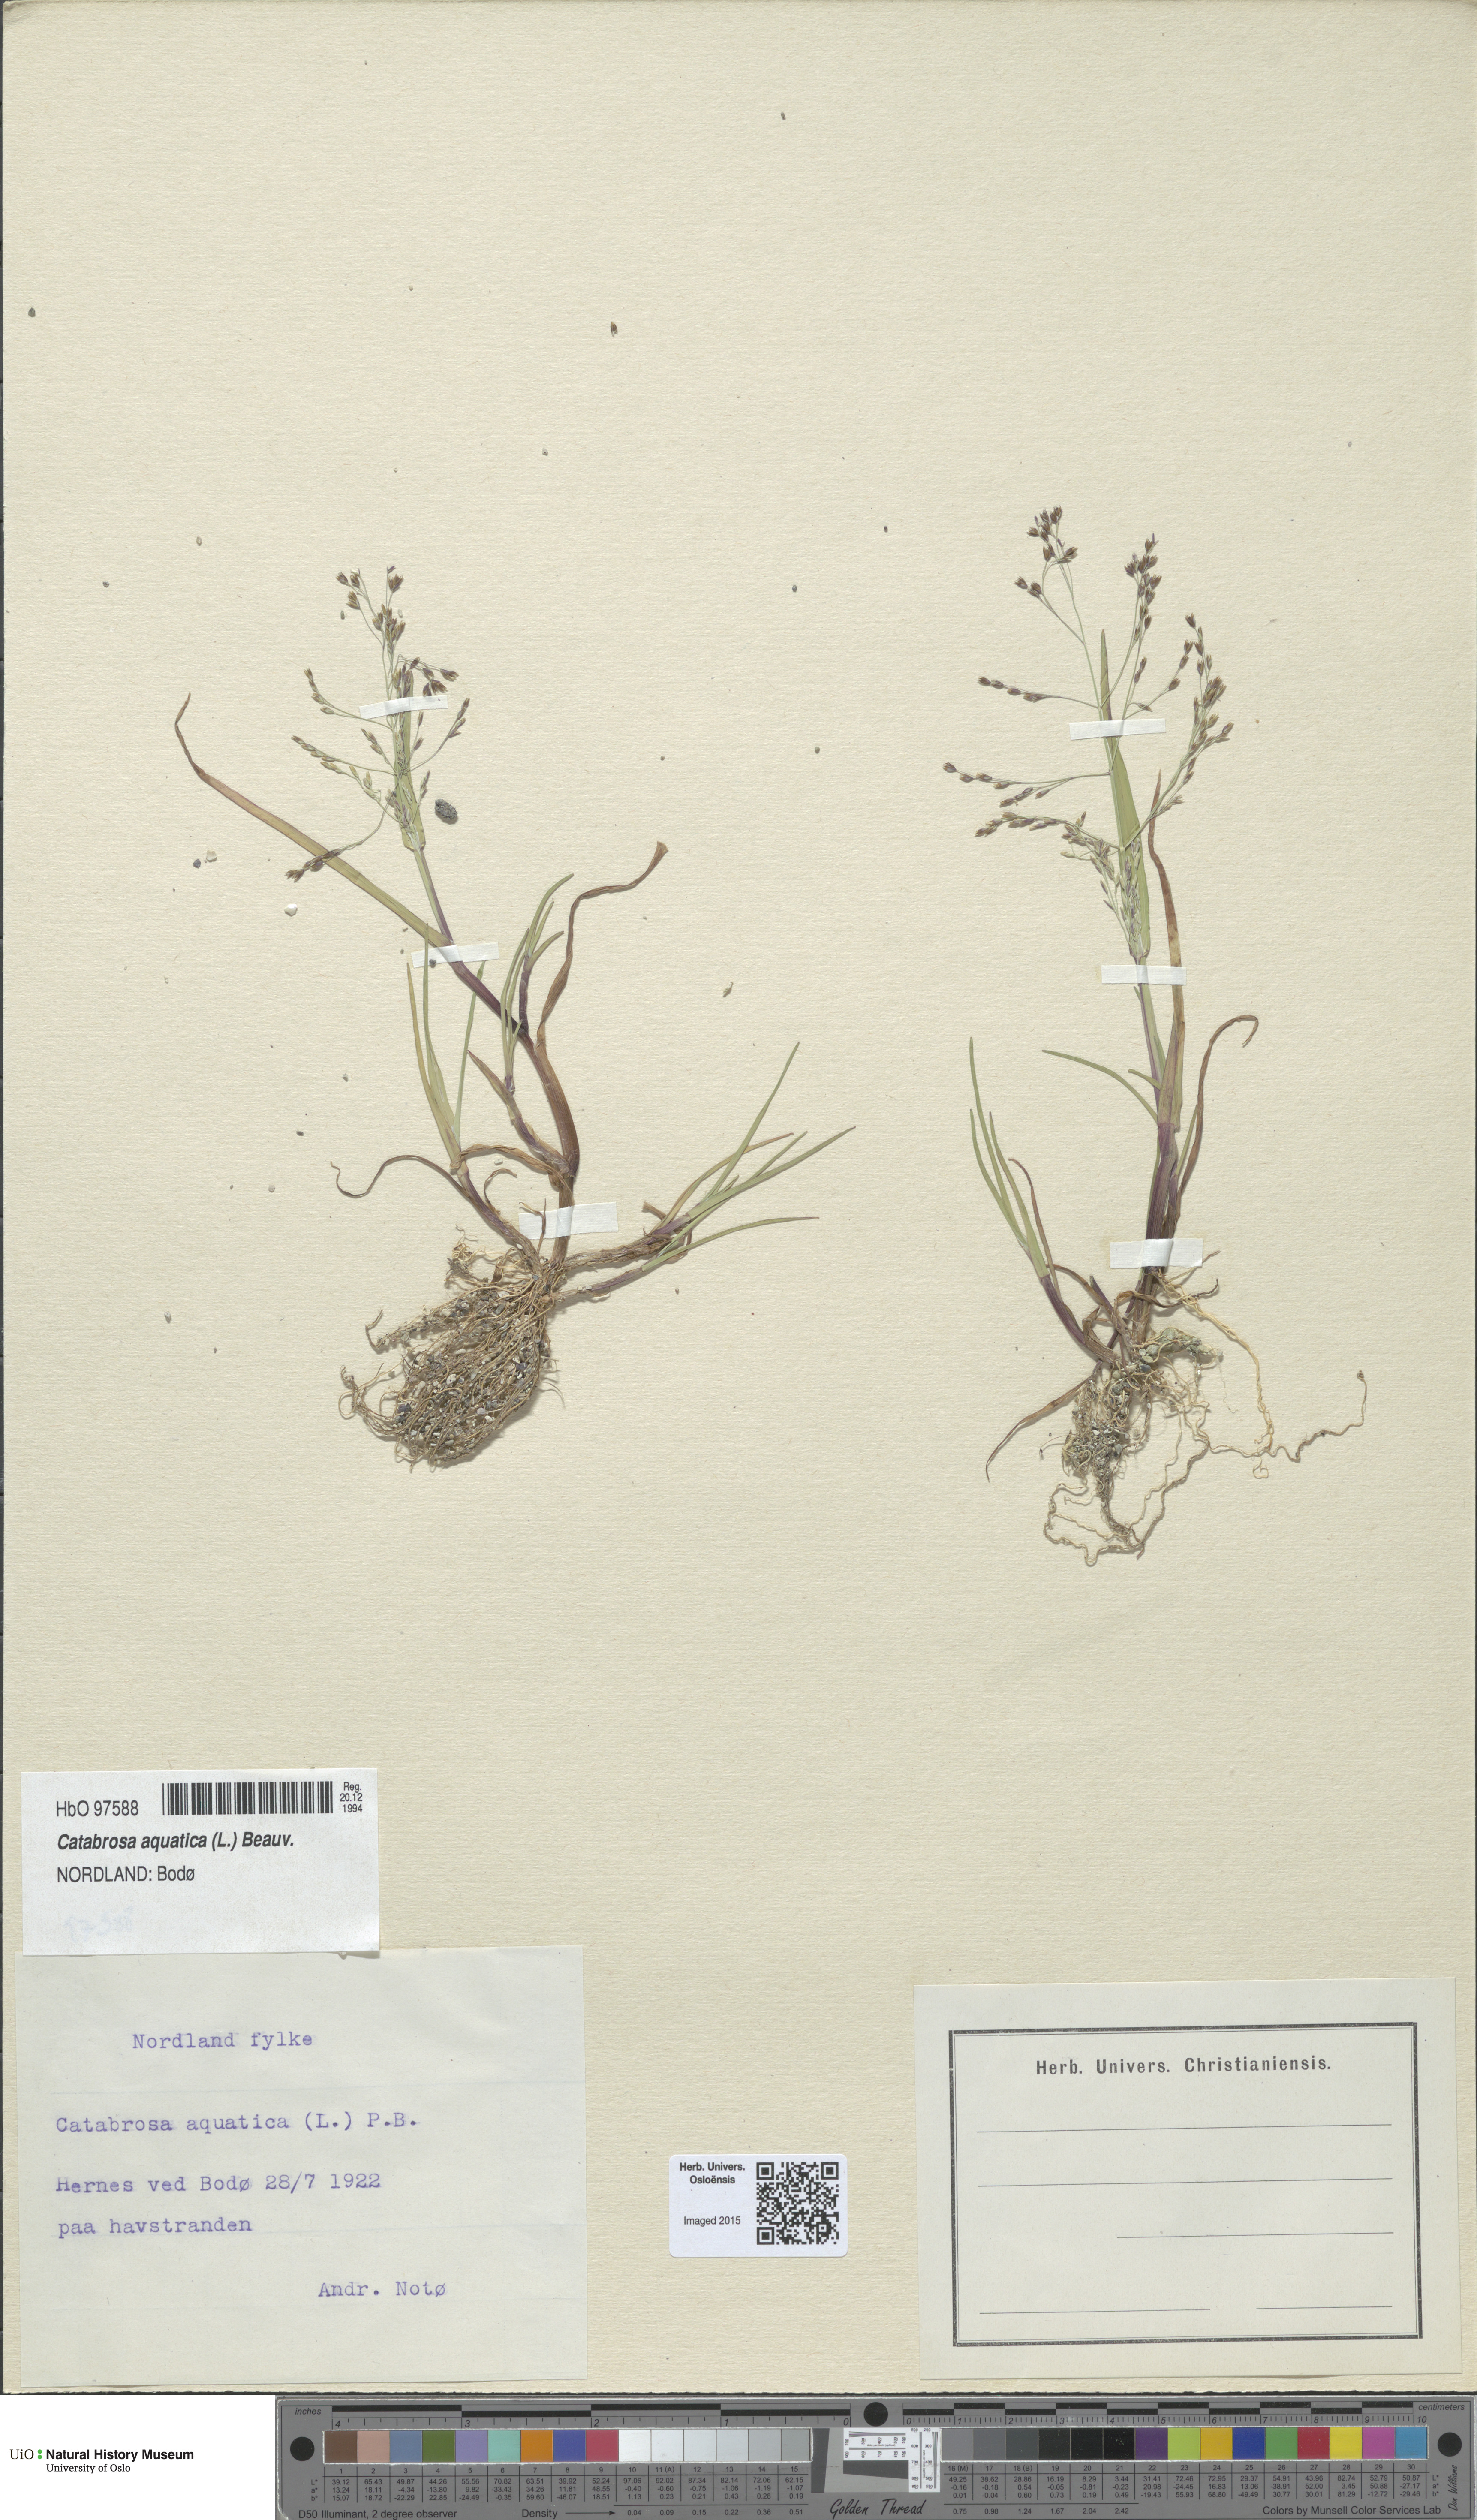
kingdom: Plantae
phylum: Tracheophyta
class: Liliopsida
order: Poales
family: Poaceae
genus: Catabrosa
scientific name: Catabrosa aquatica
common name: Whorl-grass
